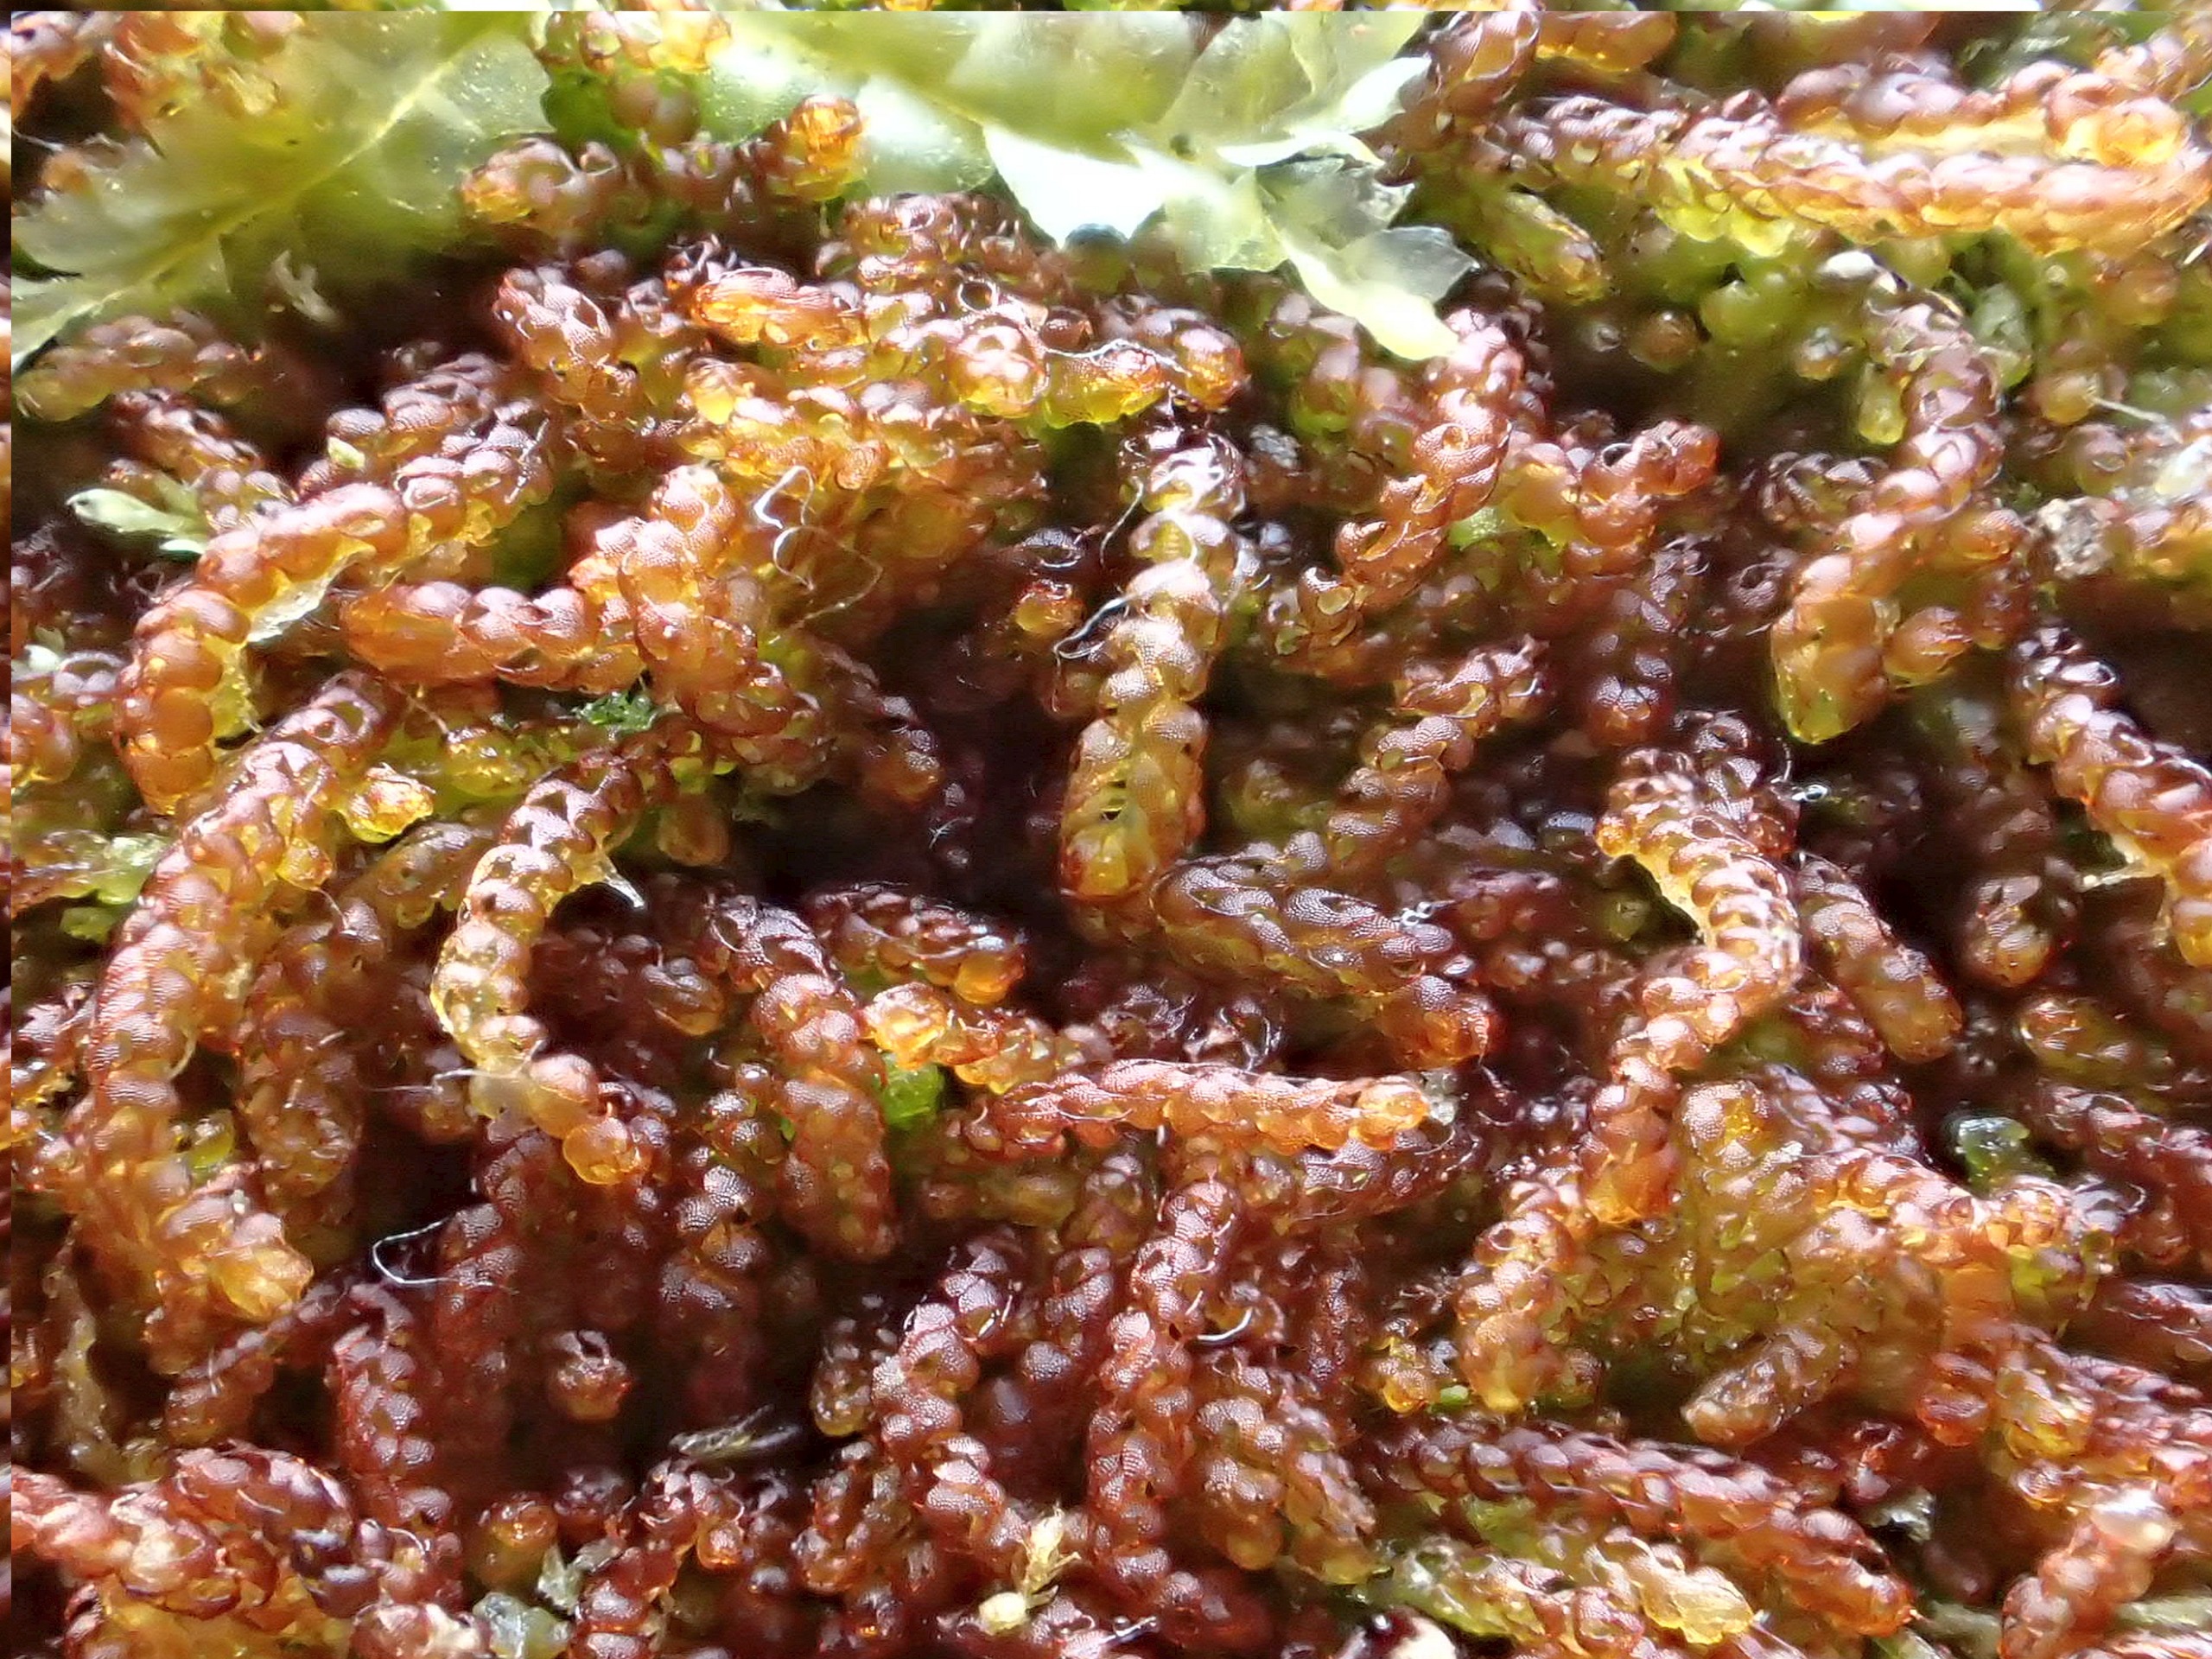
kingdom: Plantae
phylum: Marchantiophyta
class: Jungermanniopsida
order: Jungermanniales
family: Cephaloziaceae
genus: Nowellia
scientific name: Nowellia curvifolia
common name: Krumbladet stødmos
